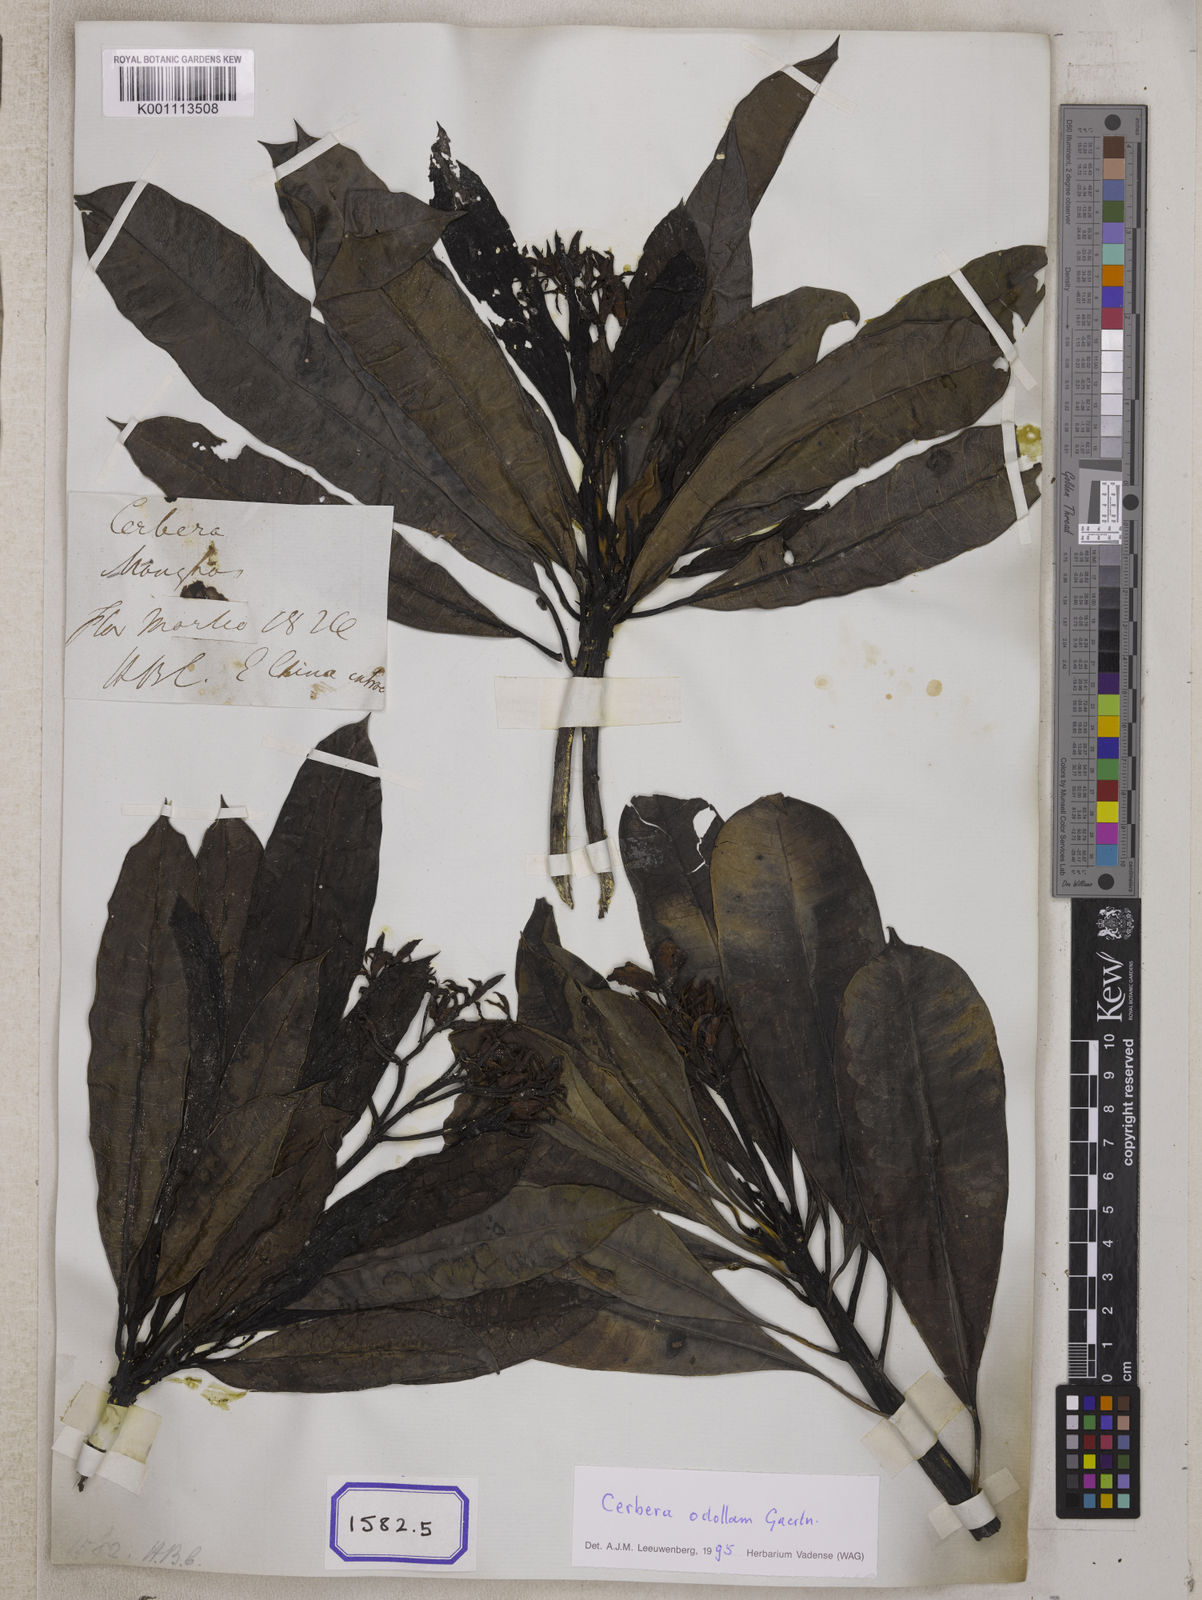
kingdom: Plantae
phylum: Tracheophyta
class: Magnoliopsida
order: Gentianales
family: Apocynaceae
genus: Cerbera
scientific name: Cerbera manghas
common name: Reva
